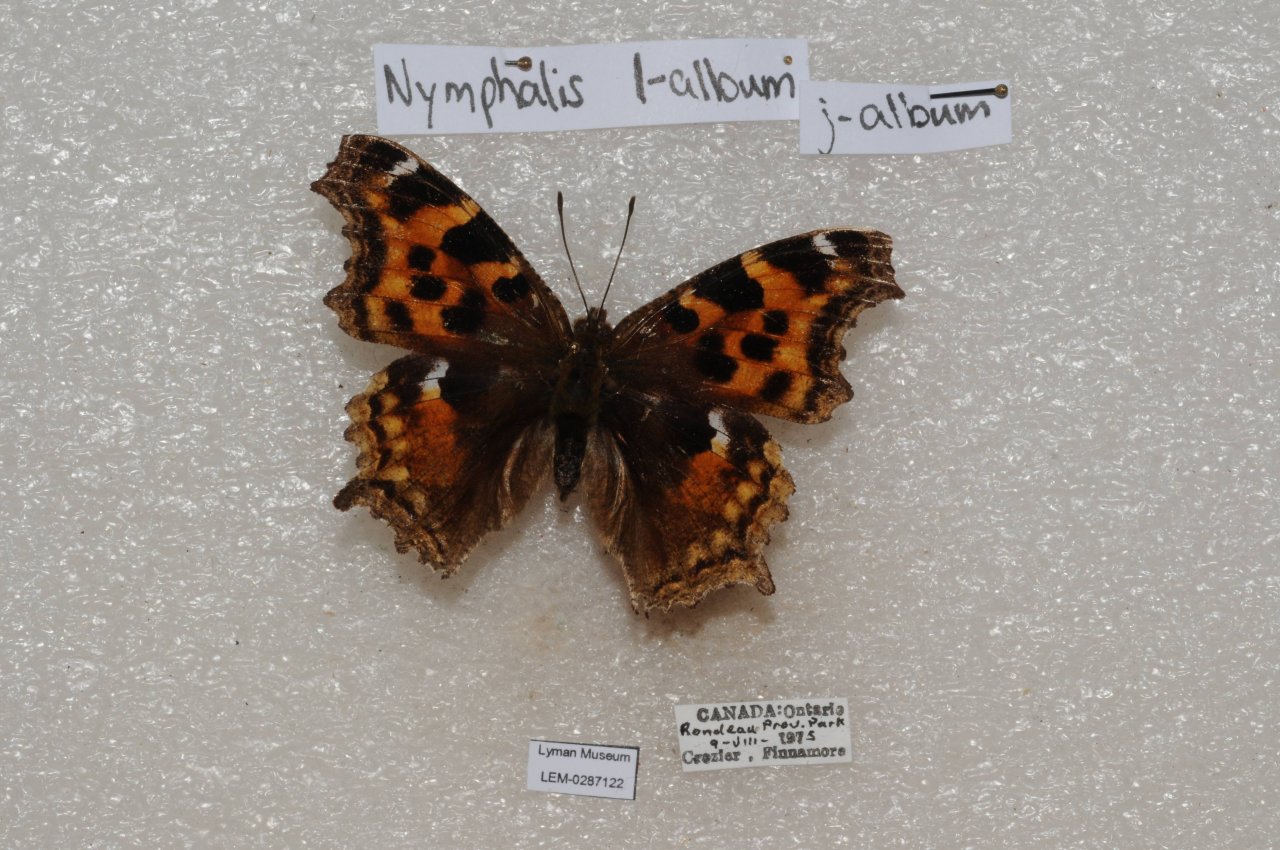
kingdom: Animalia
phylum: Arthropoda
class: Insecta
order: Lepidoptera
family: Nymphalidae
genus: Polygonia
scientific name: Polygonia vaualbum
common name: Compton Tortoiseshell
